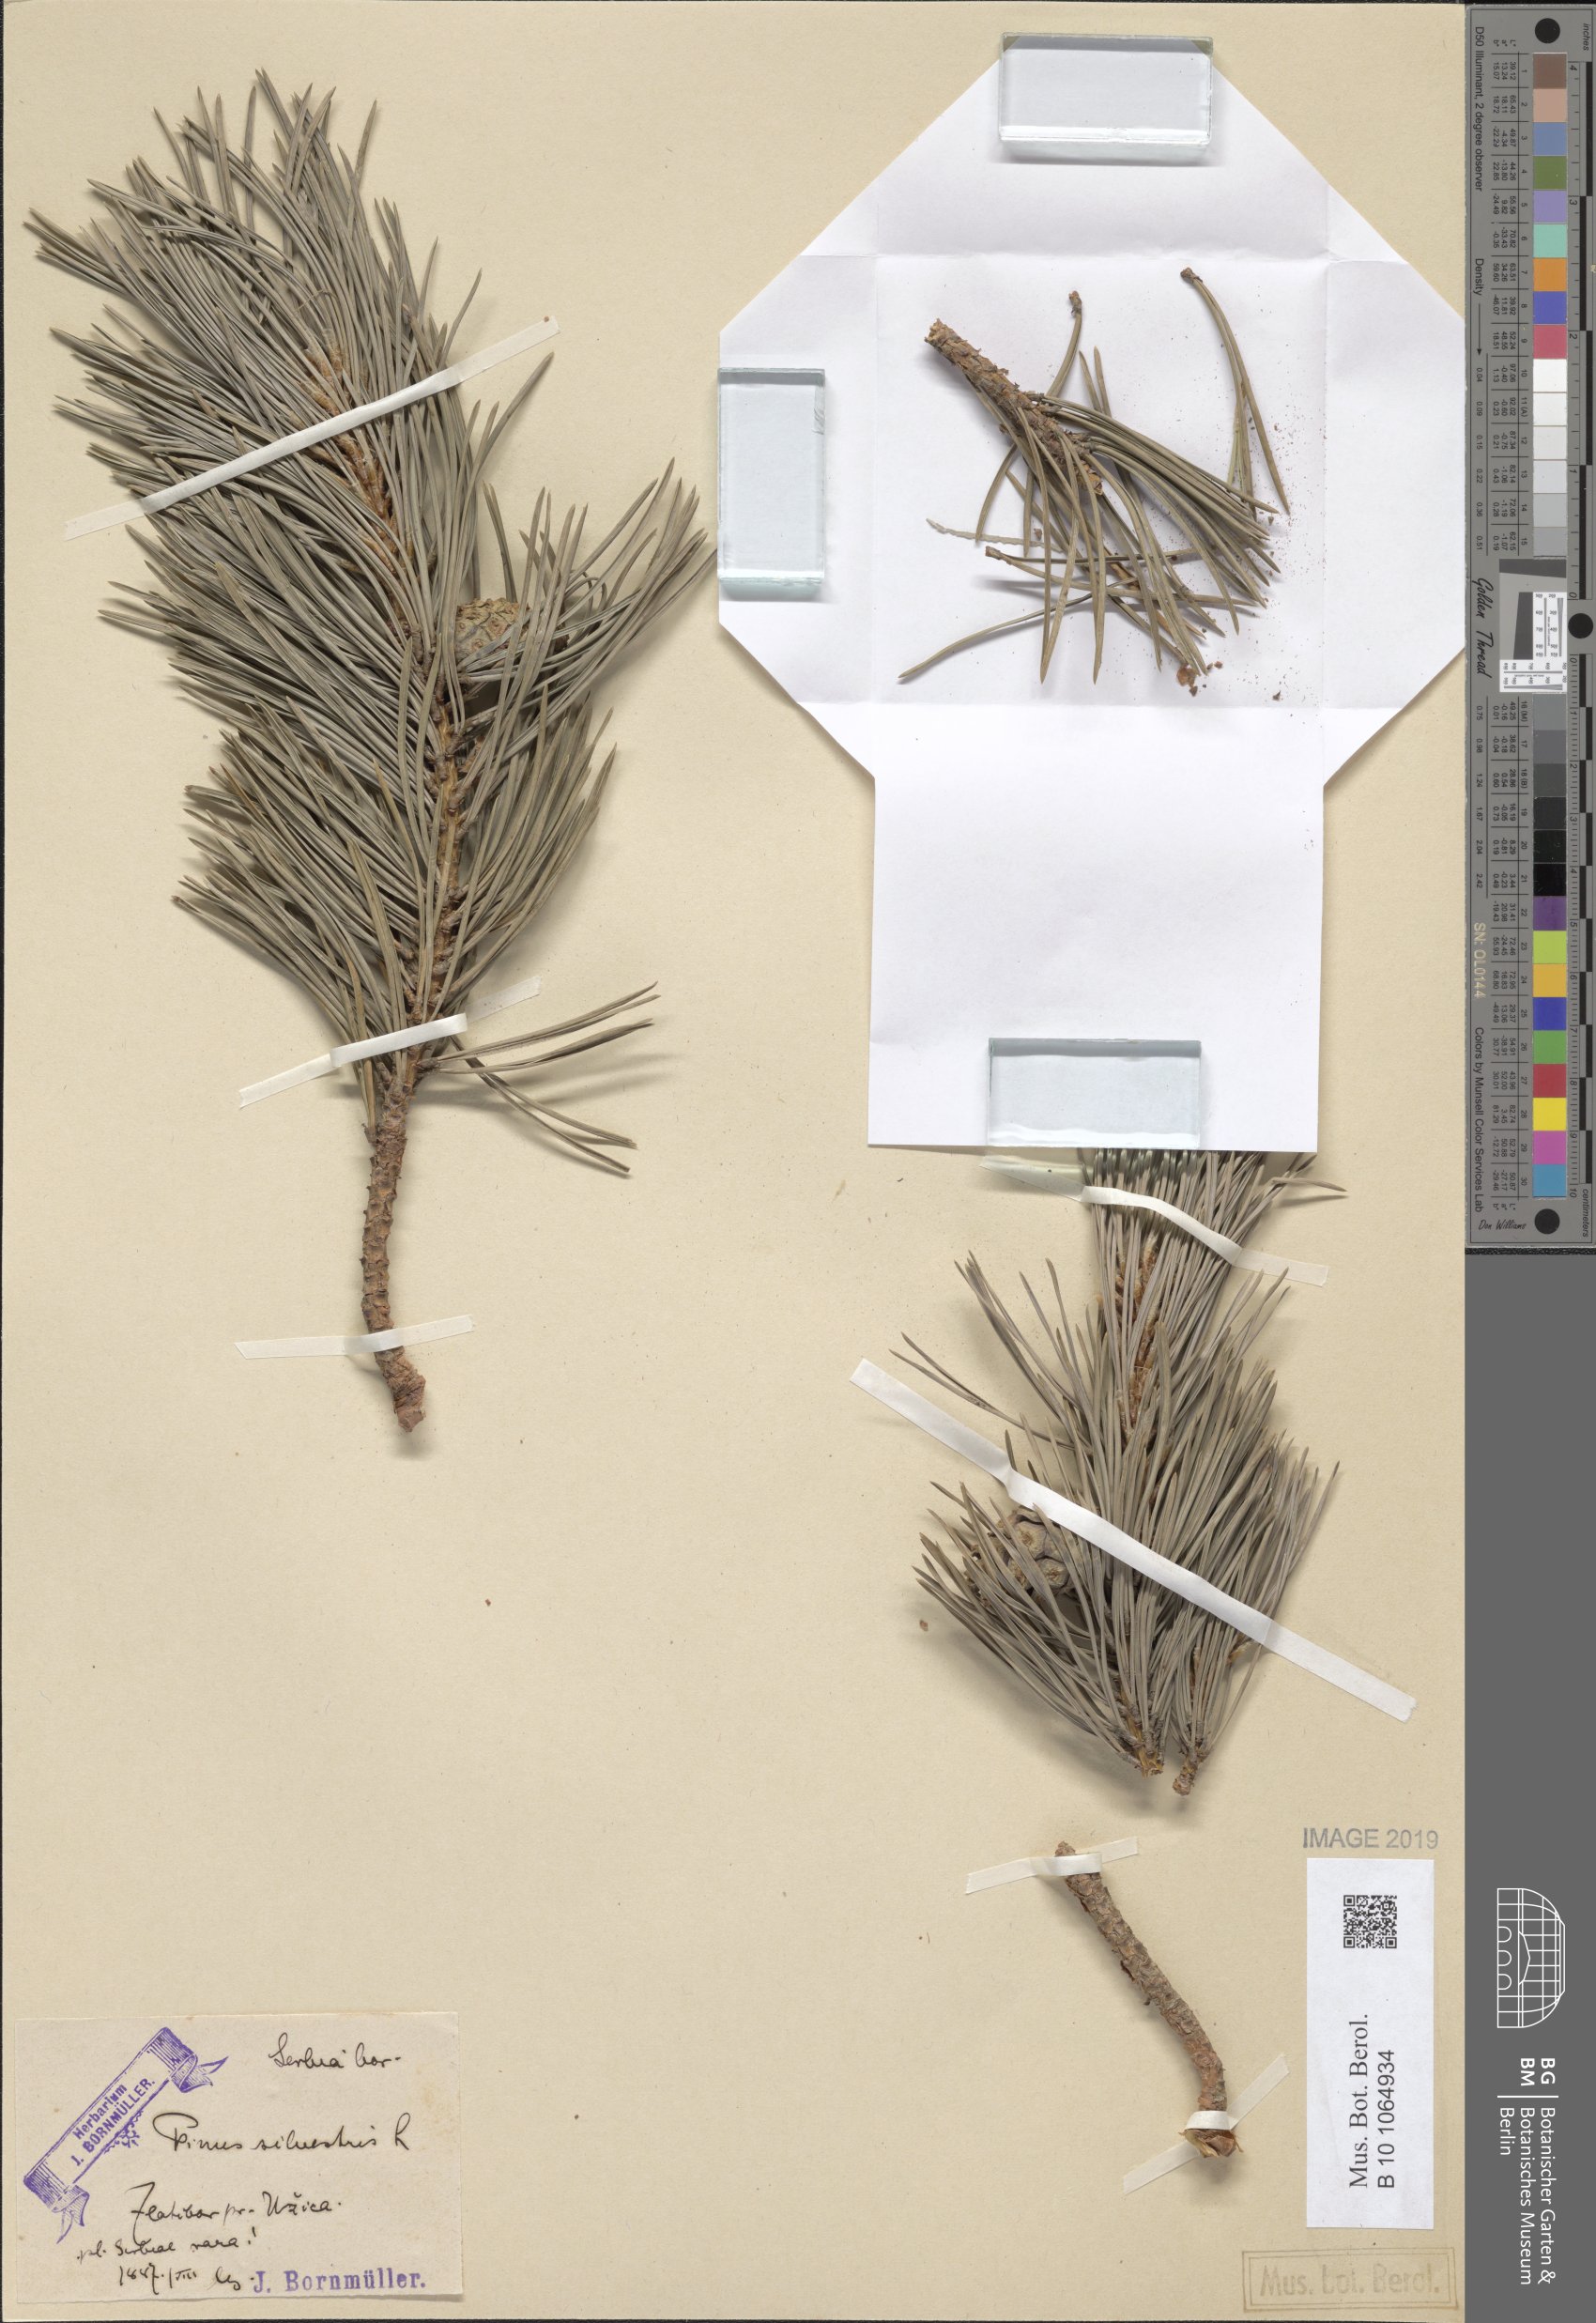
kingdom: Plantae
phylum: Tracheophyta
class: Pinopsida
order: Pinales
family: Pinaceae
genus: Pinus
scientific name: Pinus sylvestris
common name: Scots pine
